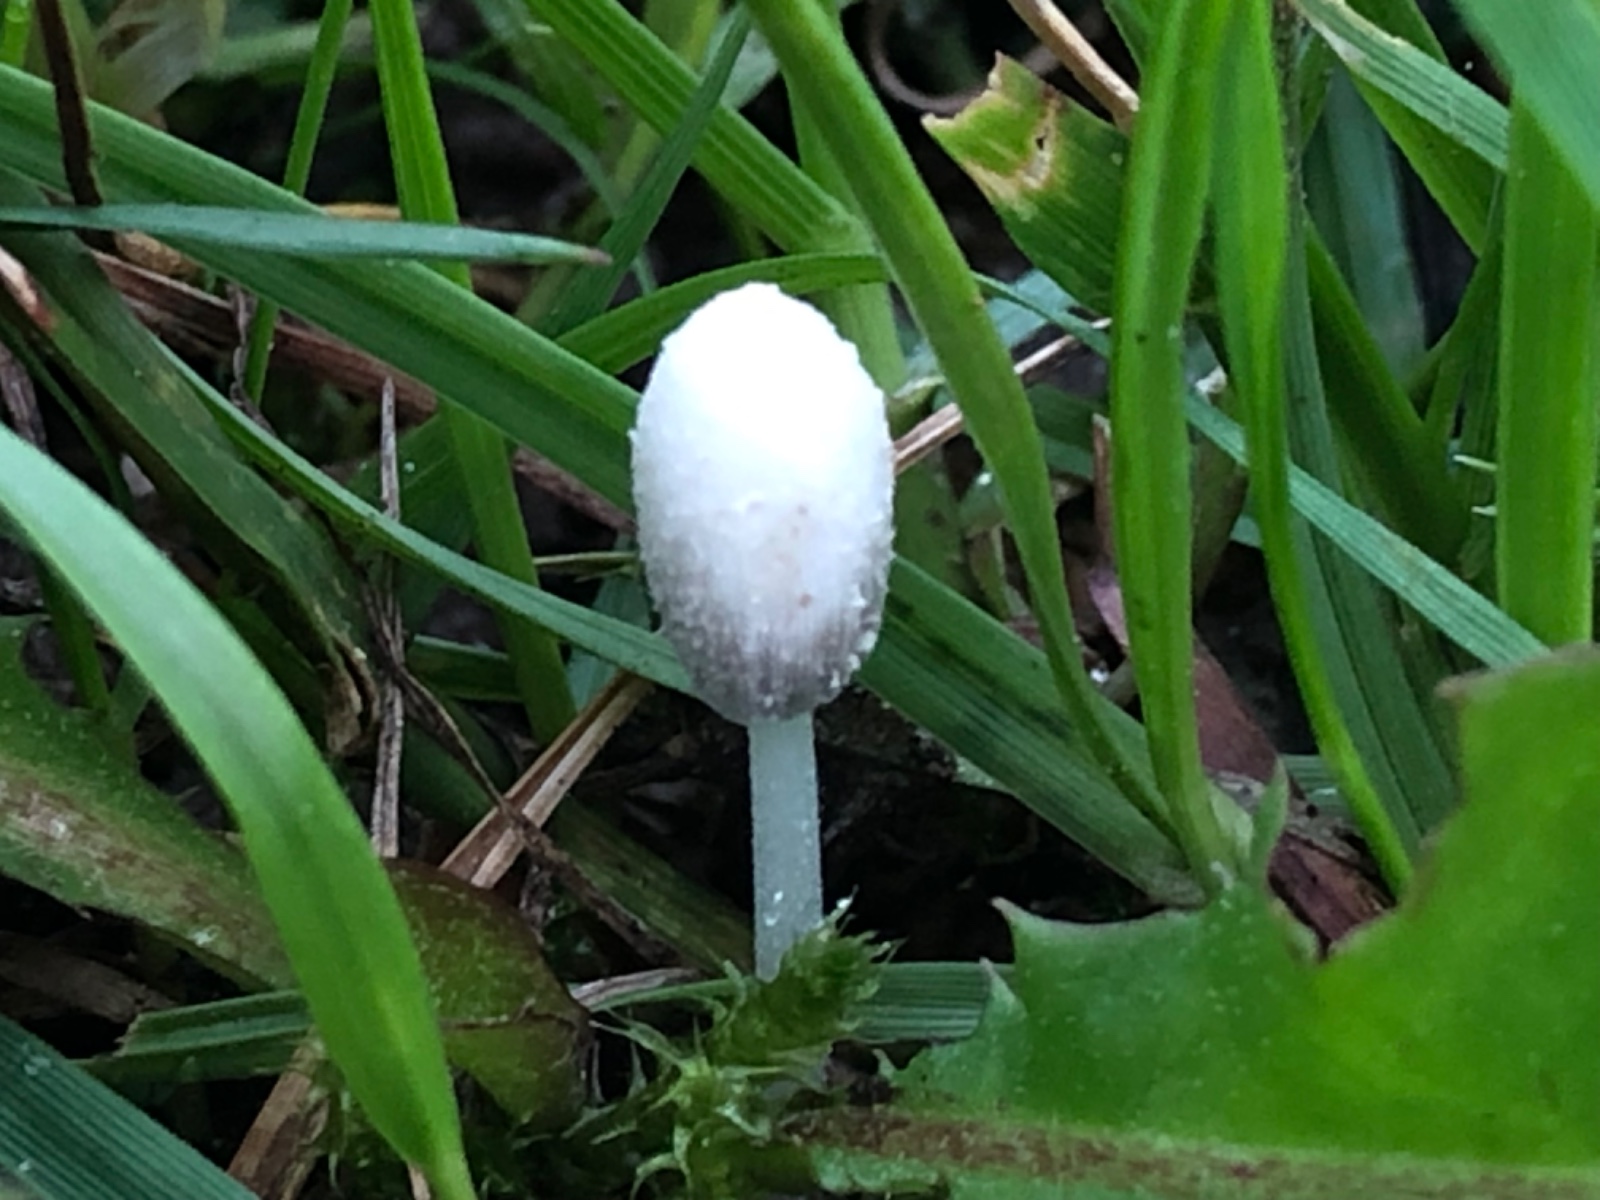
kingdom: Fungi
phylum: Basidiomycota
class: Agaricomycetes
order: Agaricales
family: Psathyrellaceae
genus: Coprinopsis
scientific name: Coprinopsis urticicola
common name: urte-blækhat
